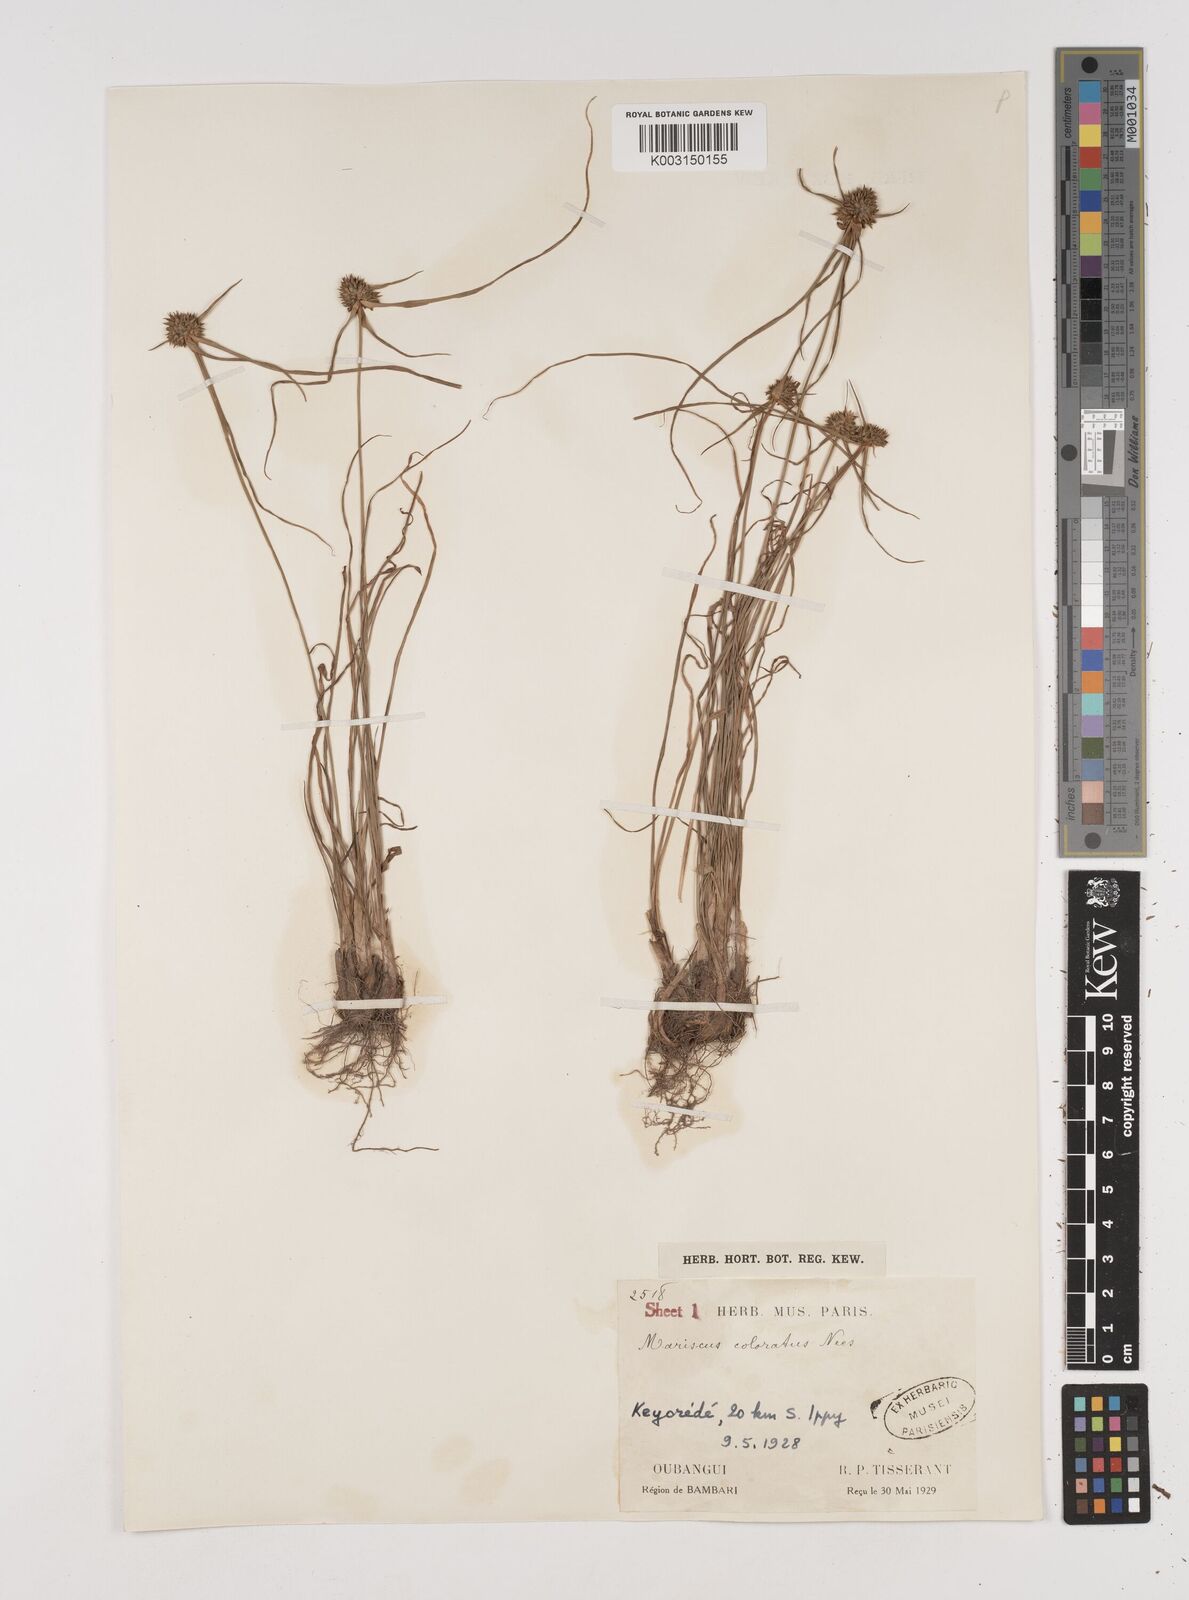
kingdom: Plantae
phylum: Tracheophyta
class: Liliopsida
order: Poales
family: Cyperaceae
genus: Cyperus
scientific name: Cyperus dubius
